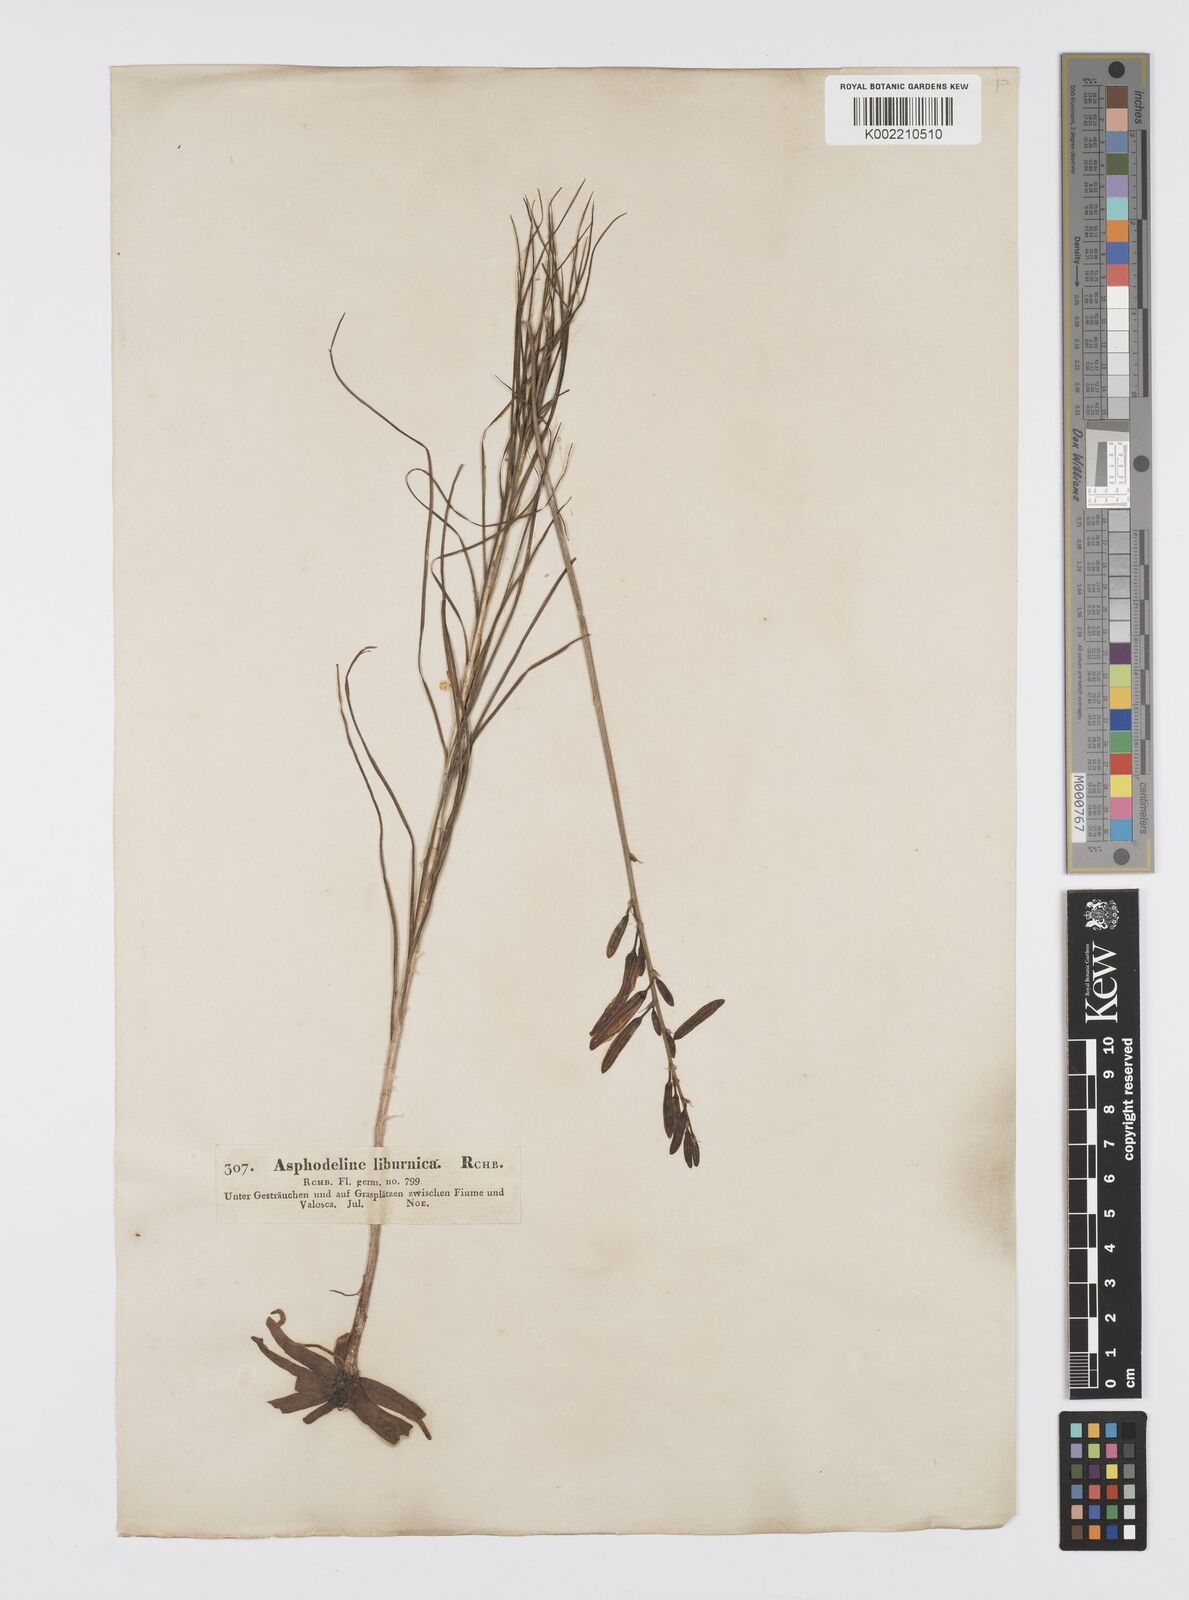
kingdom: Plantae
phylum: Tracheophyta
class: Liliopsida
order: Asparagales
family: Asphodelaceae
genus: Asphodeline
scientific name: Asphodeline liburnica
